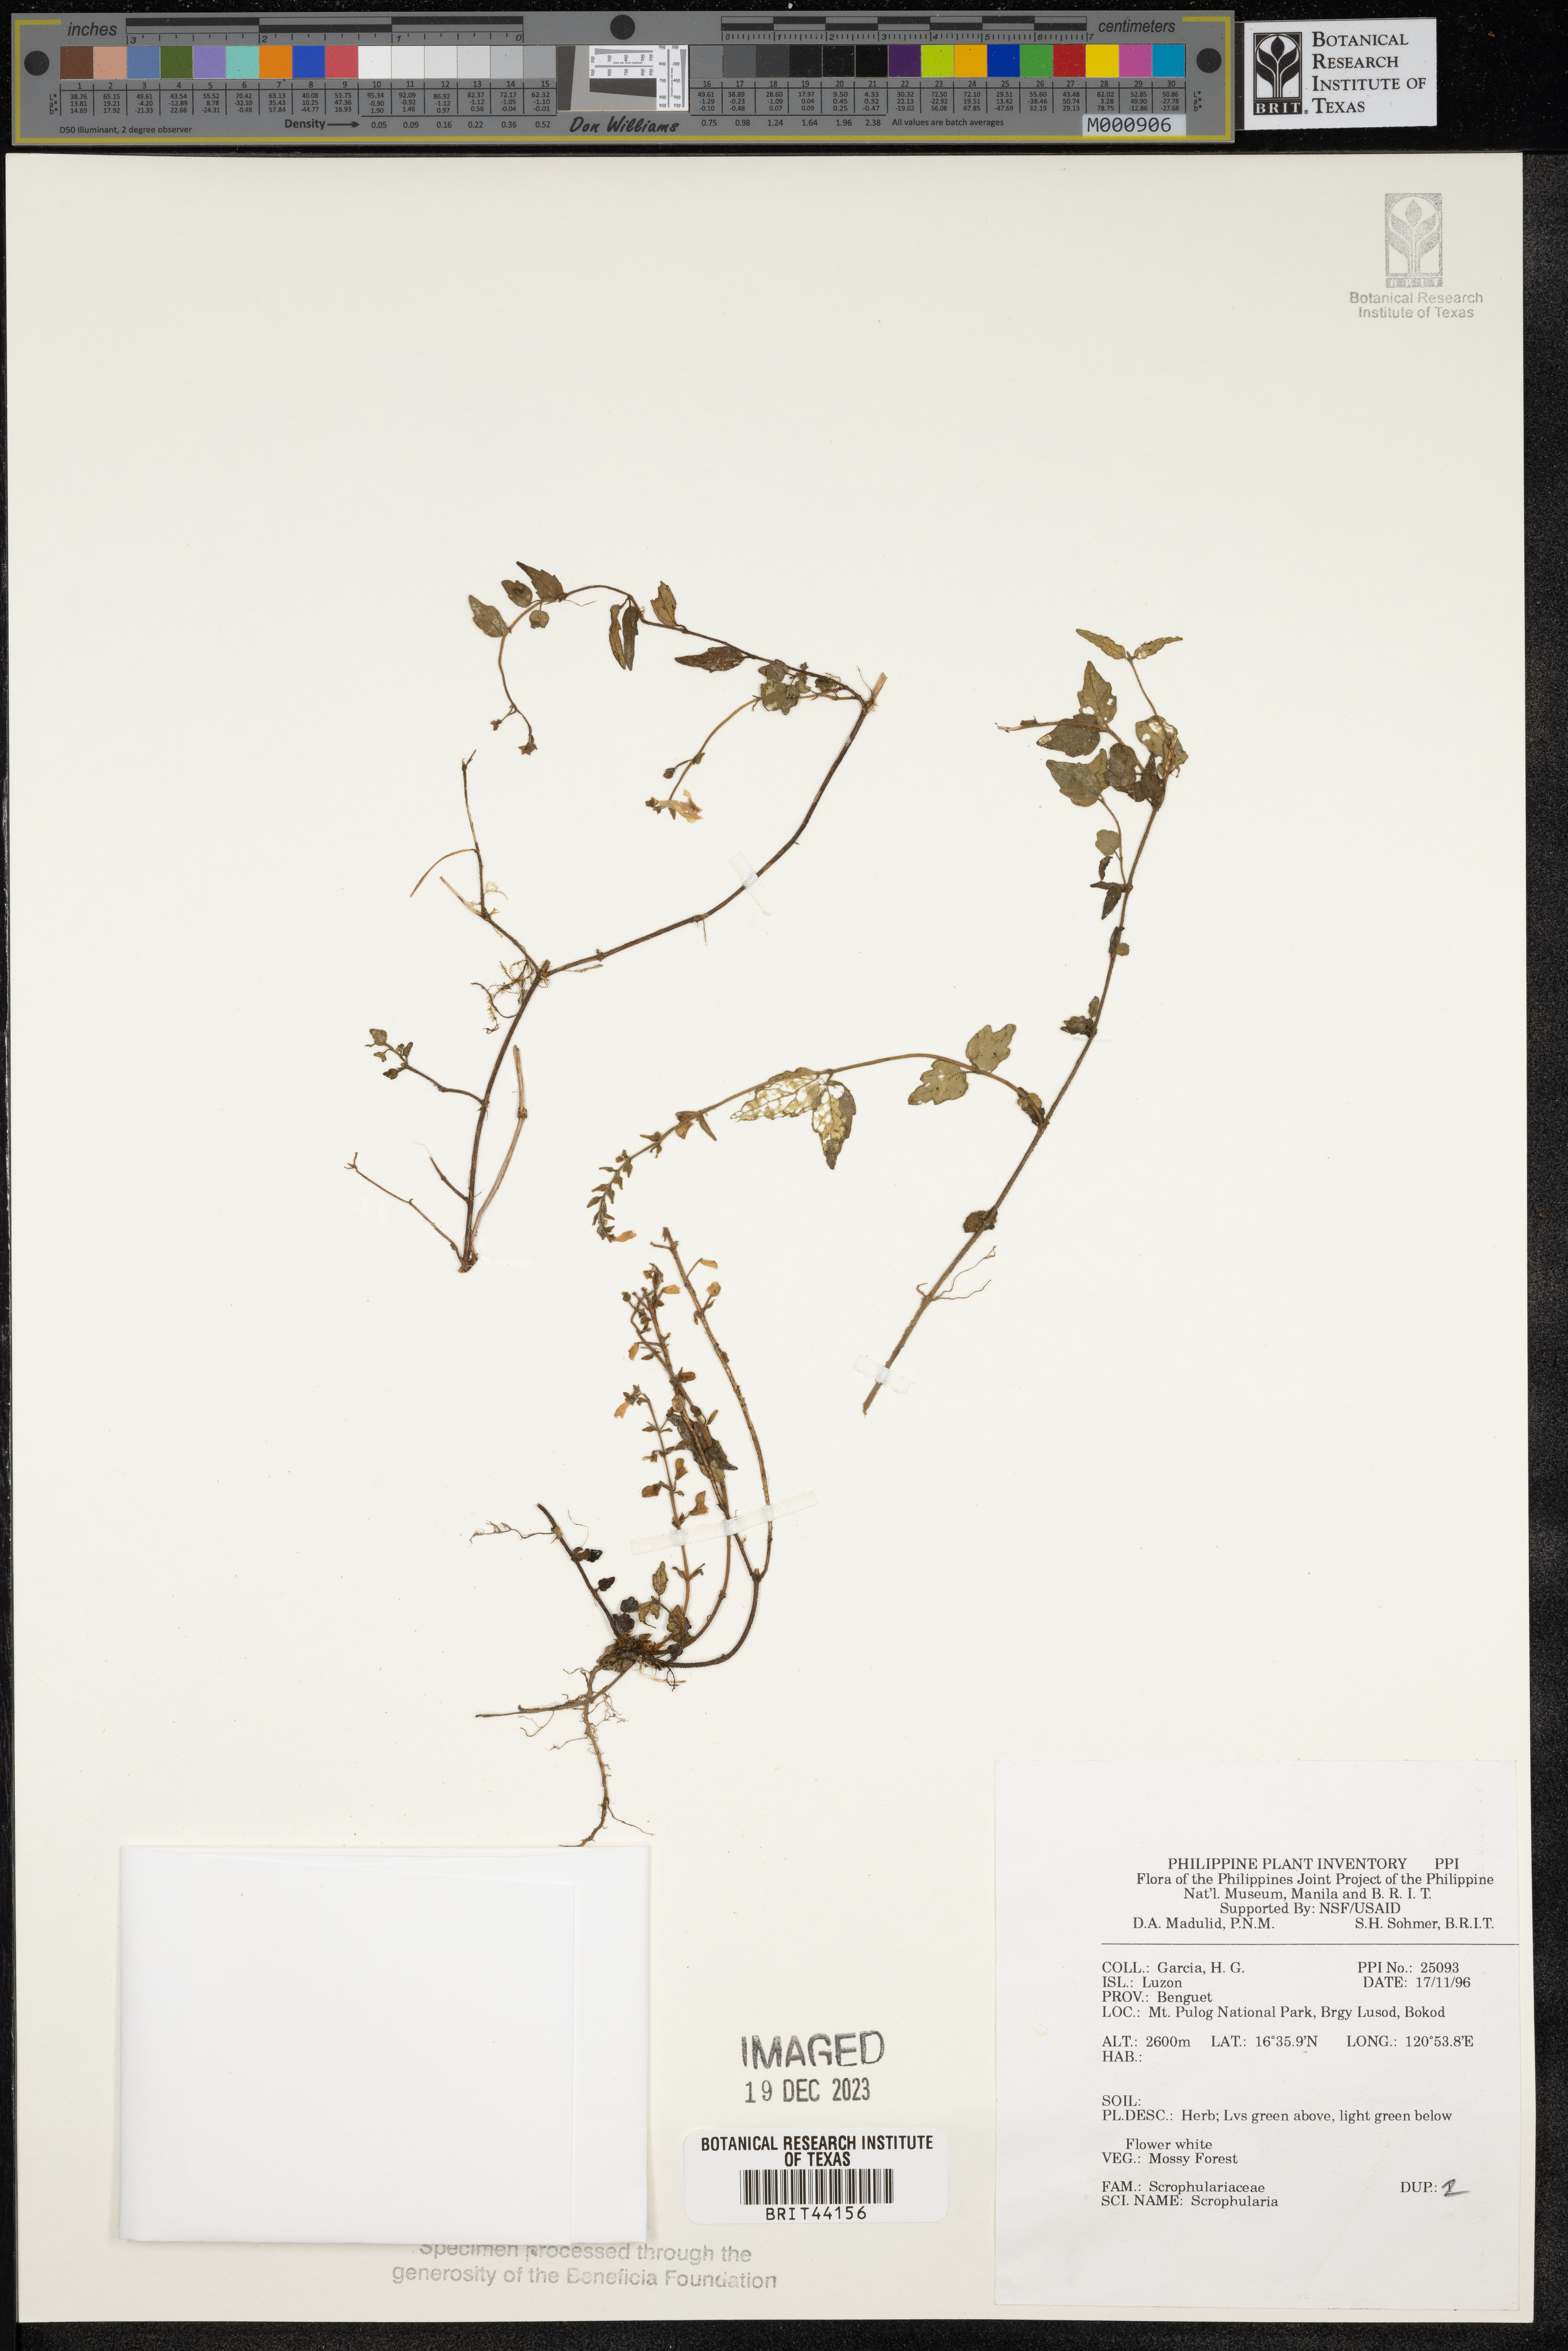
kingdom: Plantae
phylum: Tracheophyta
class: Magnoliopsida
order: Lamiales
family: Scrophulariaceae
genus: Scrophularia
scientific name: Scrophularia
